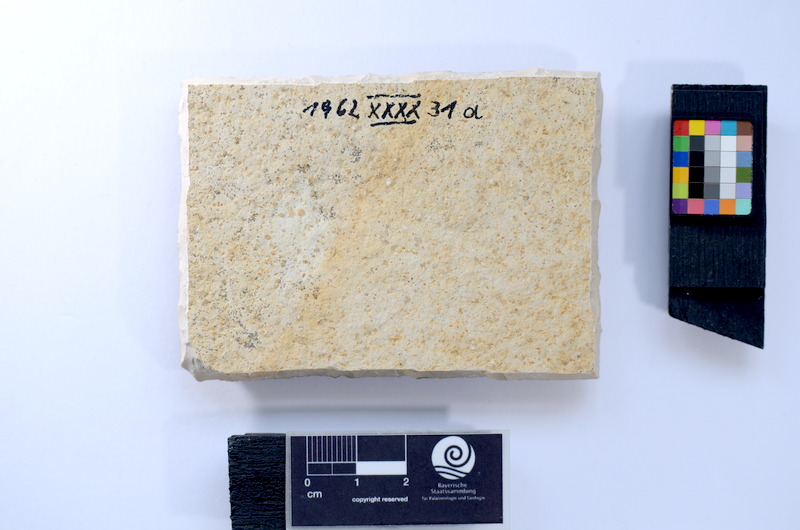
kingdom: Animalia
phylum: Chordata
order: Salmoniformes
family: Orthogonikleithridae
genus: Leptolepides
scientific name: Leptolepides sprattiformis
